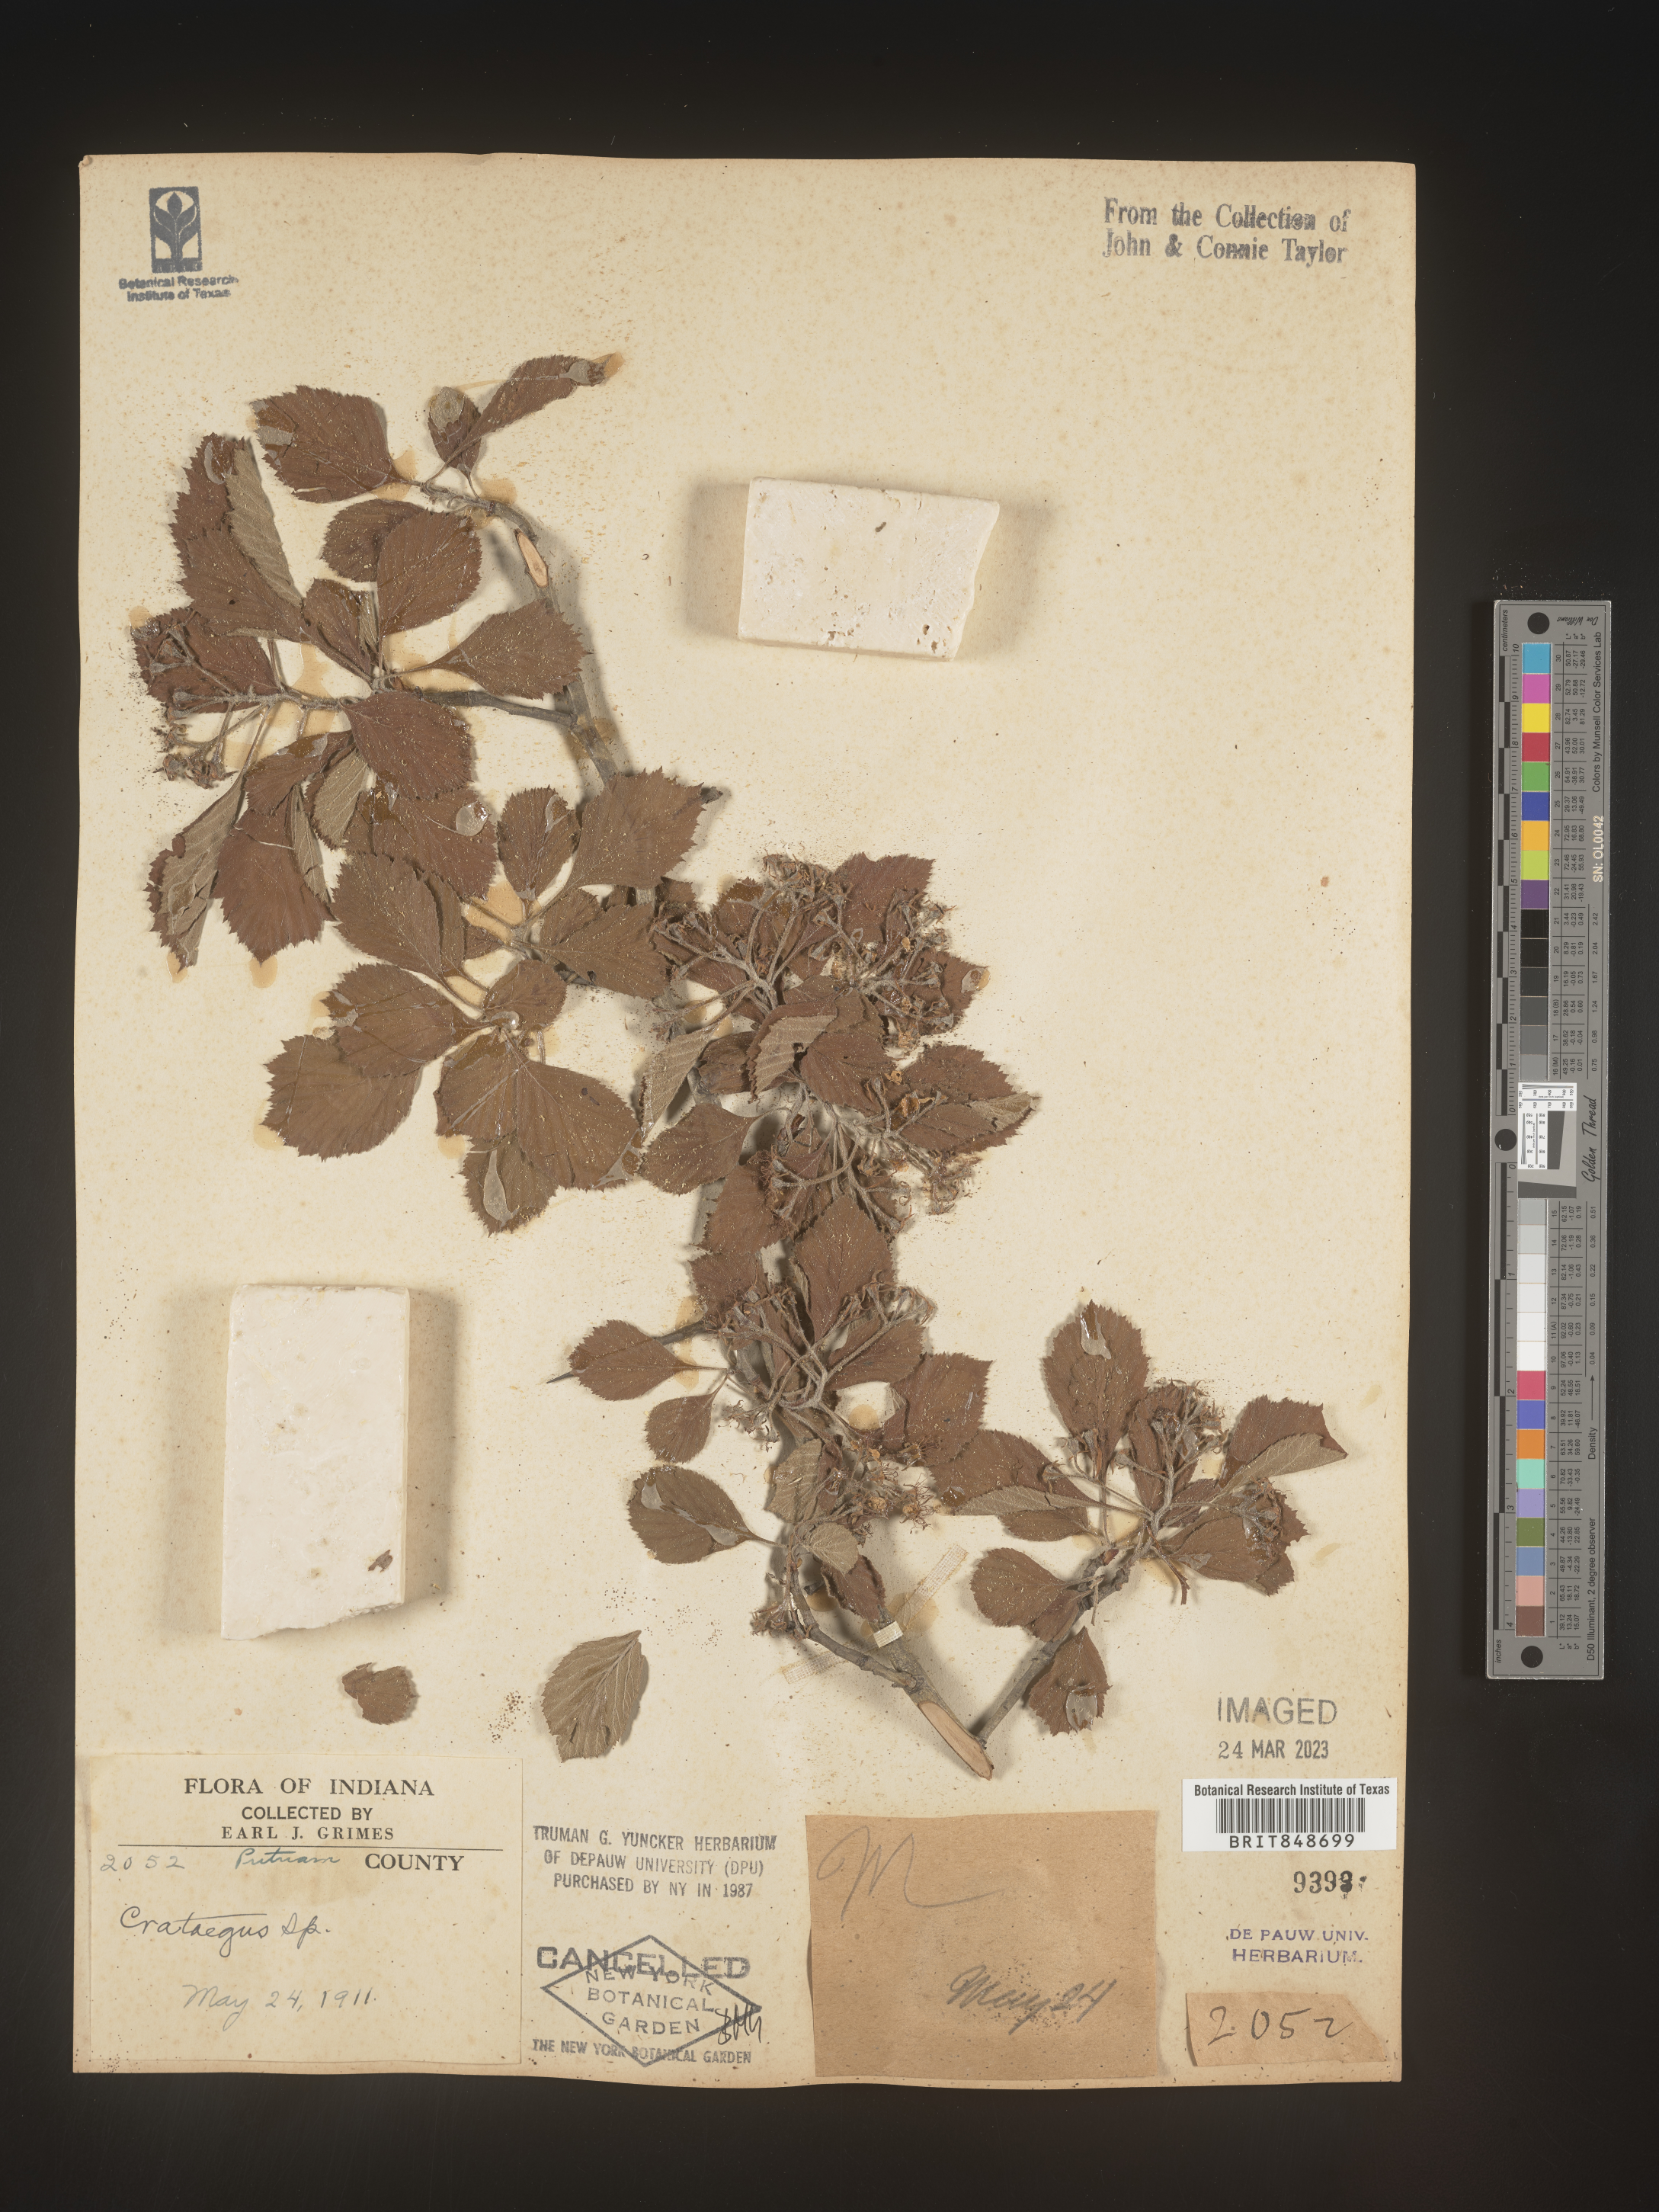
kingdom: Plantae
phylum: Tracheophyta
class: Magnoliopsida
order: Rosales
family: Rosaceae
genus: Crataegus
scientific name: Crataegus
